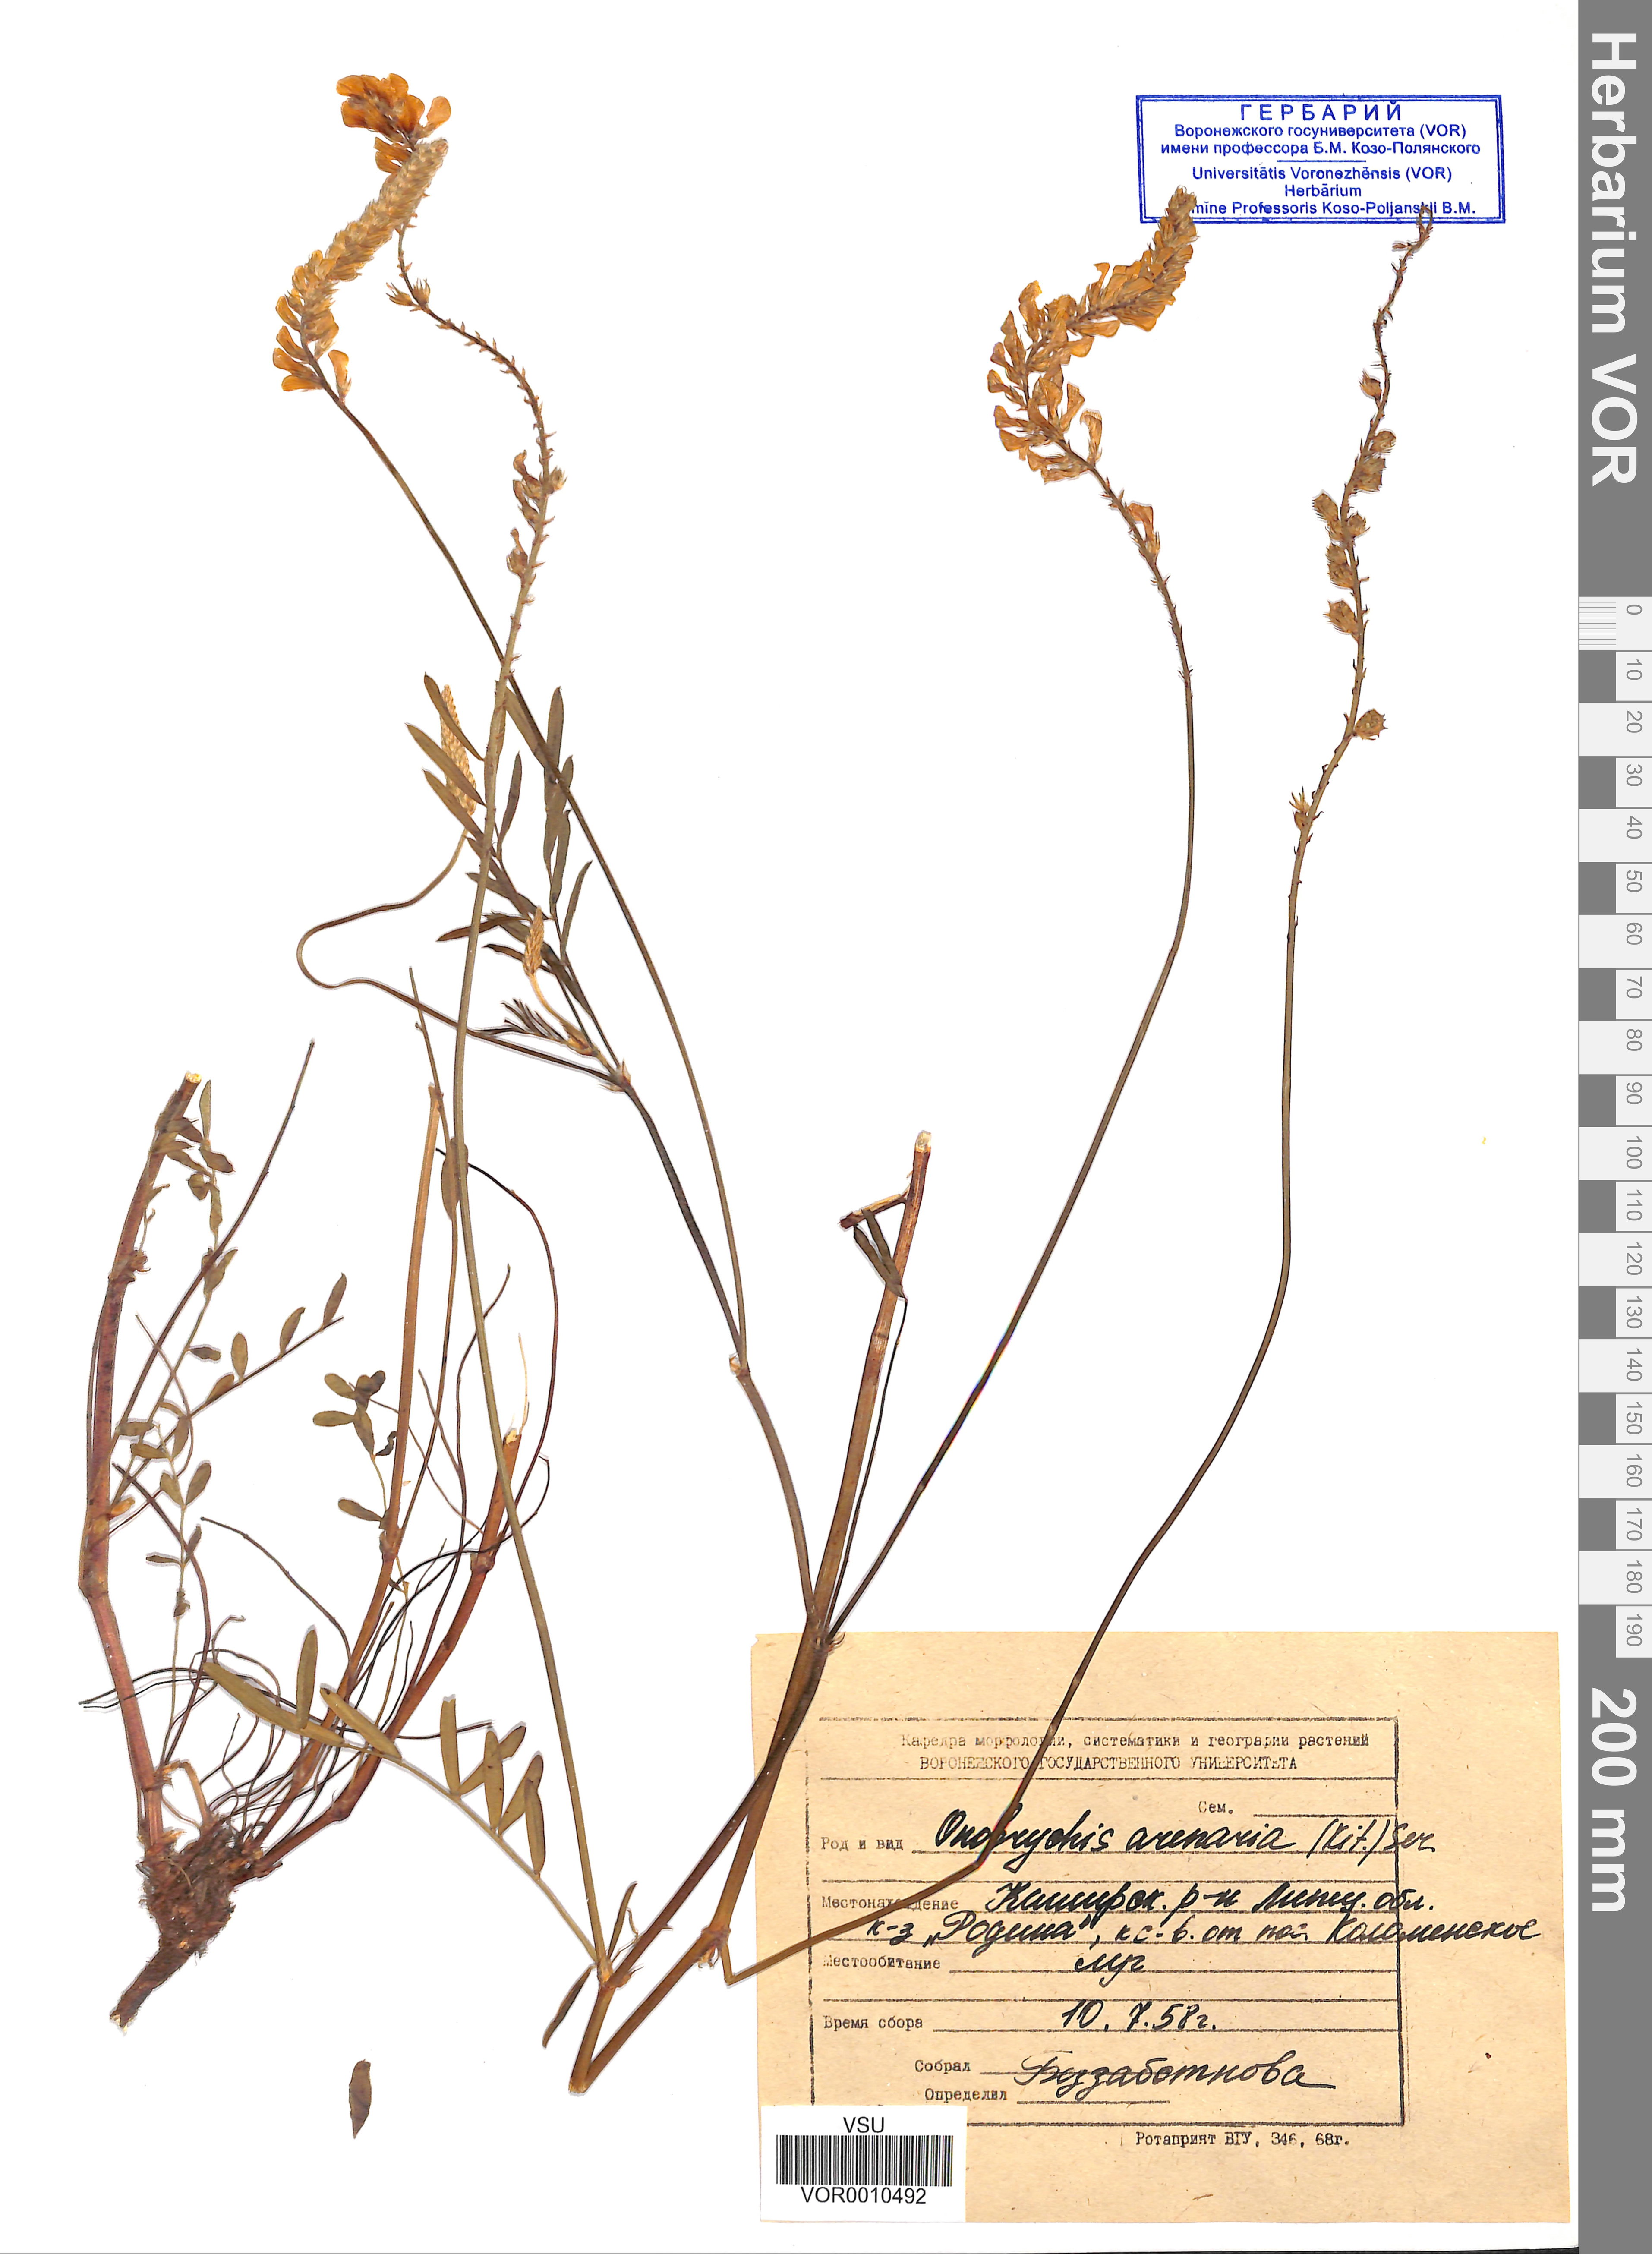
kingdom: Plantae
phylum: Tracheophyta
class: Magnoliopsida
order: Fabales
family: Fabaceae
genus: Onobrychis
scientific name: Onobrychis arenaria
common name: Sand esparcet
